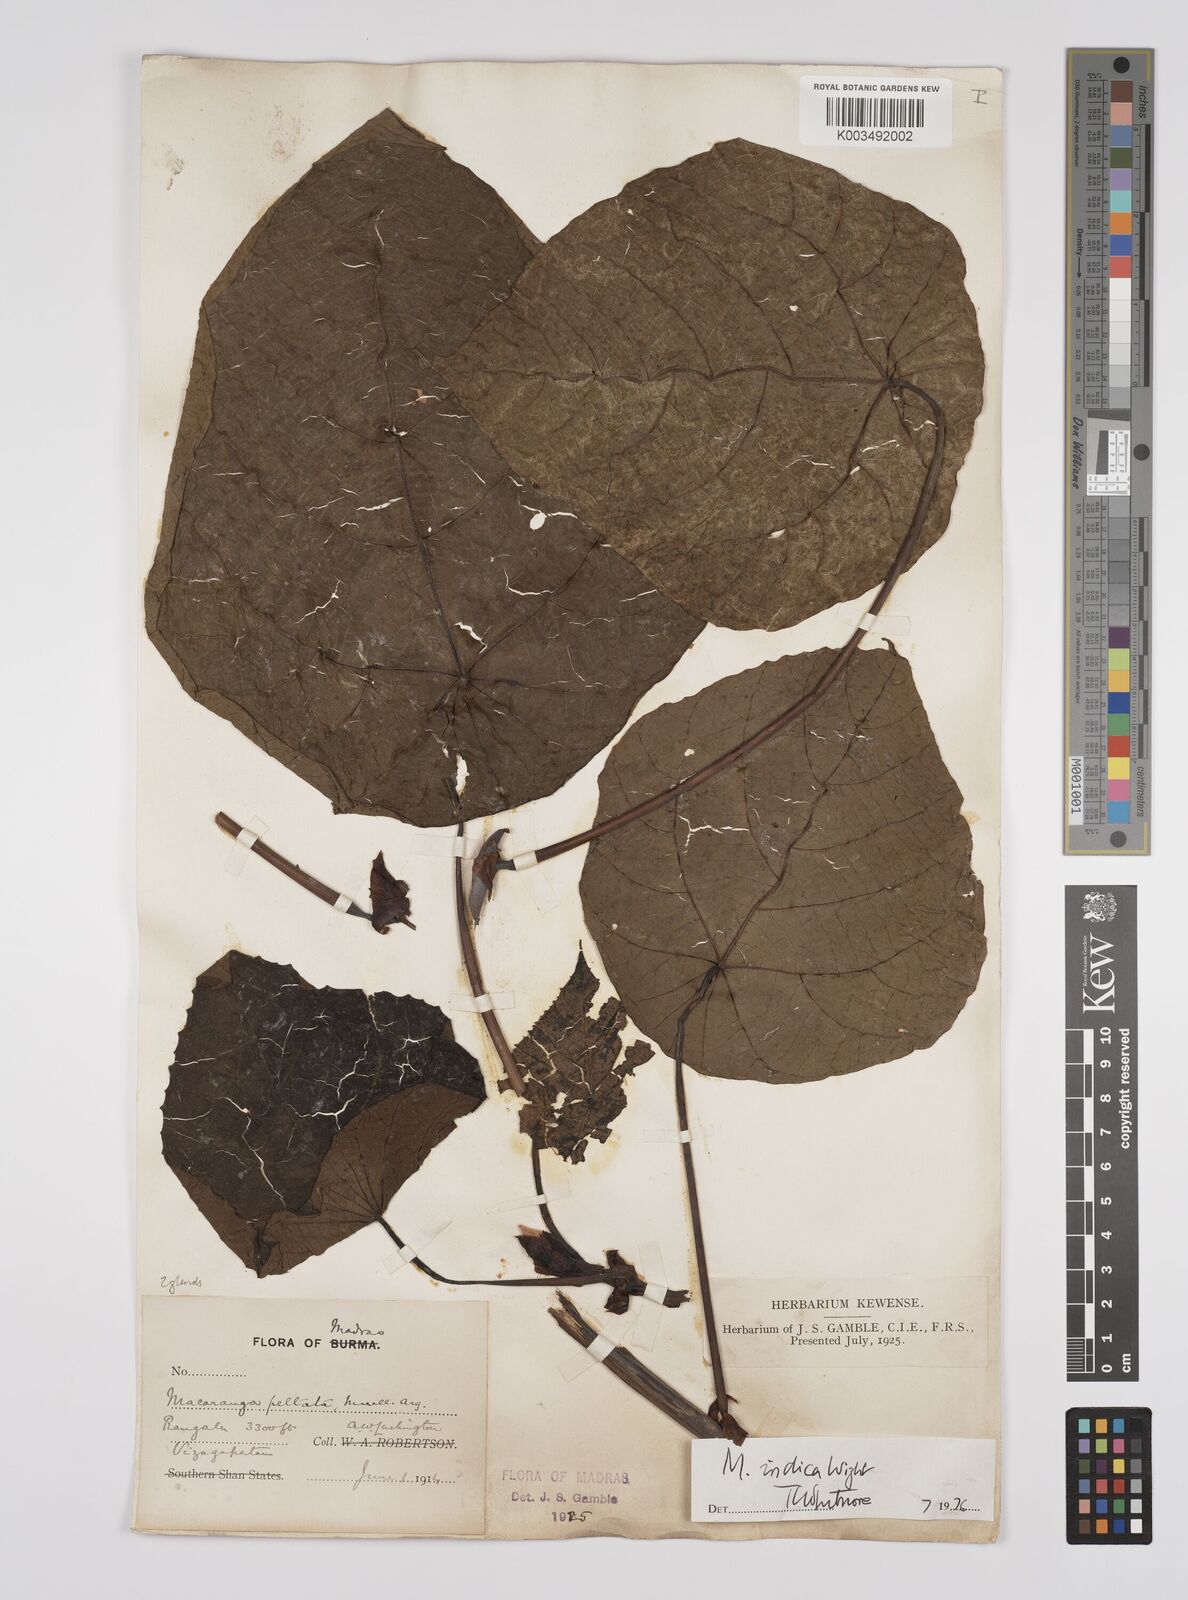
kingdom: Plantae
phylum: Tracheophyta
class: Magnoliopsida
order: Malpighiales
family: Euphorbiaceae
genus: Macaranga
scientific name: Macaranga indica
